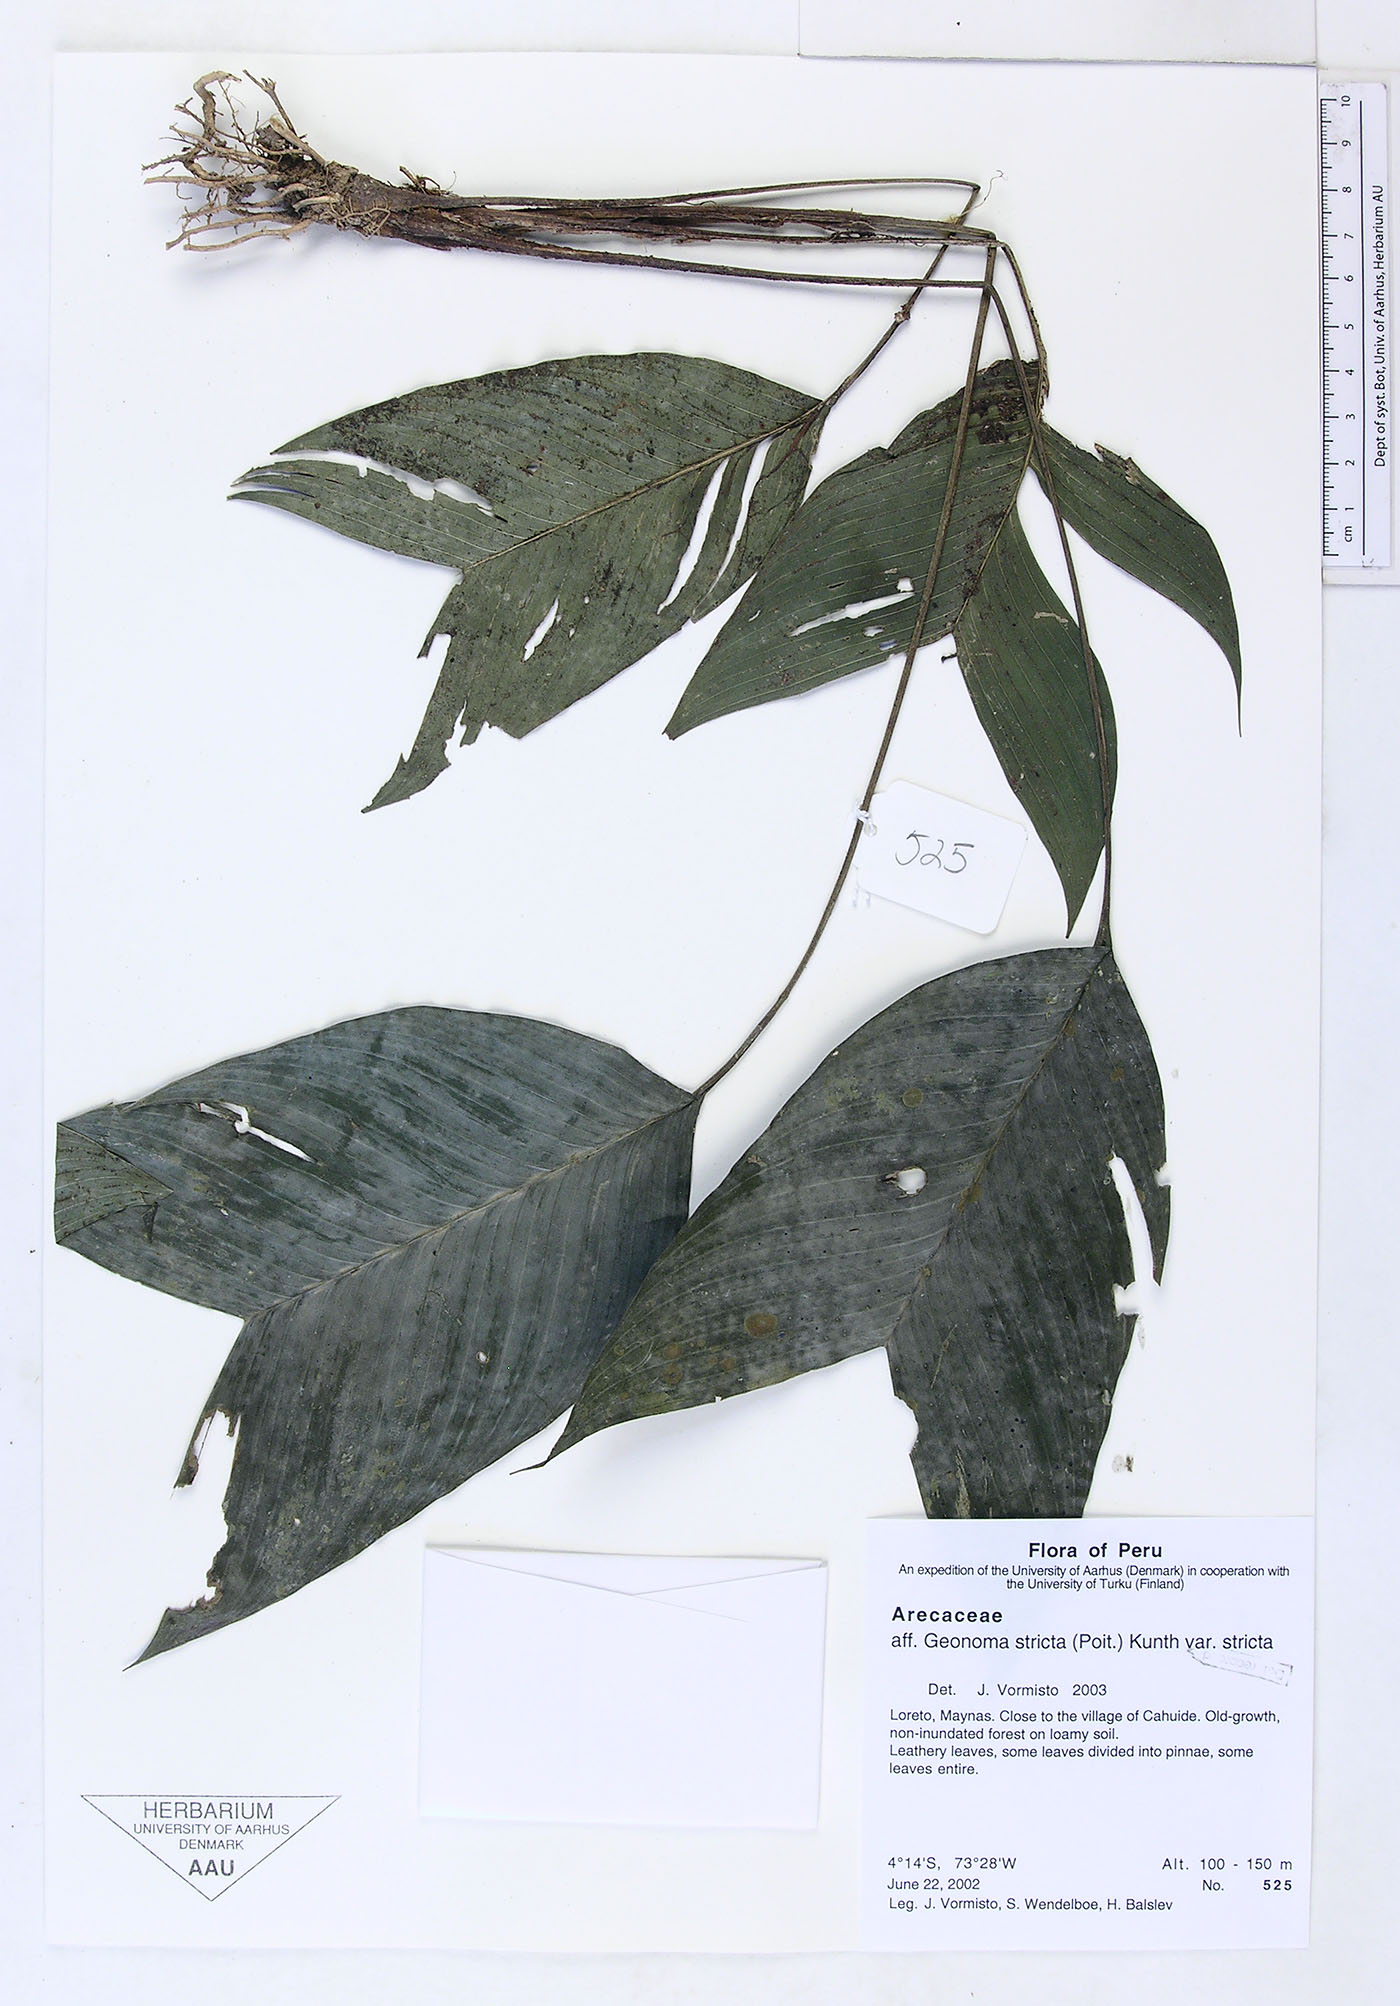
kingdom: Plantae
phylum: Tracheophyta
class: Liliopsida
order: Arecales
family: Arecaceae
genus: Geonoma
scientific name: Geonoma stricta
